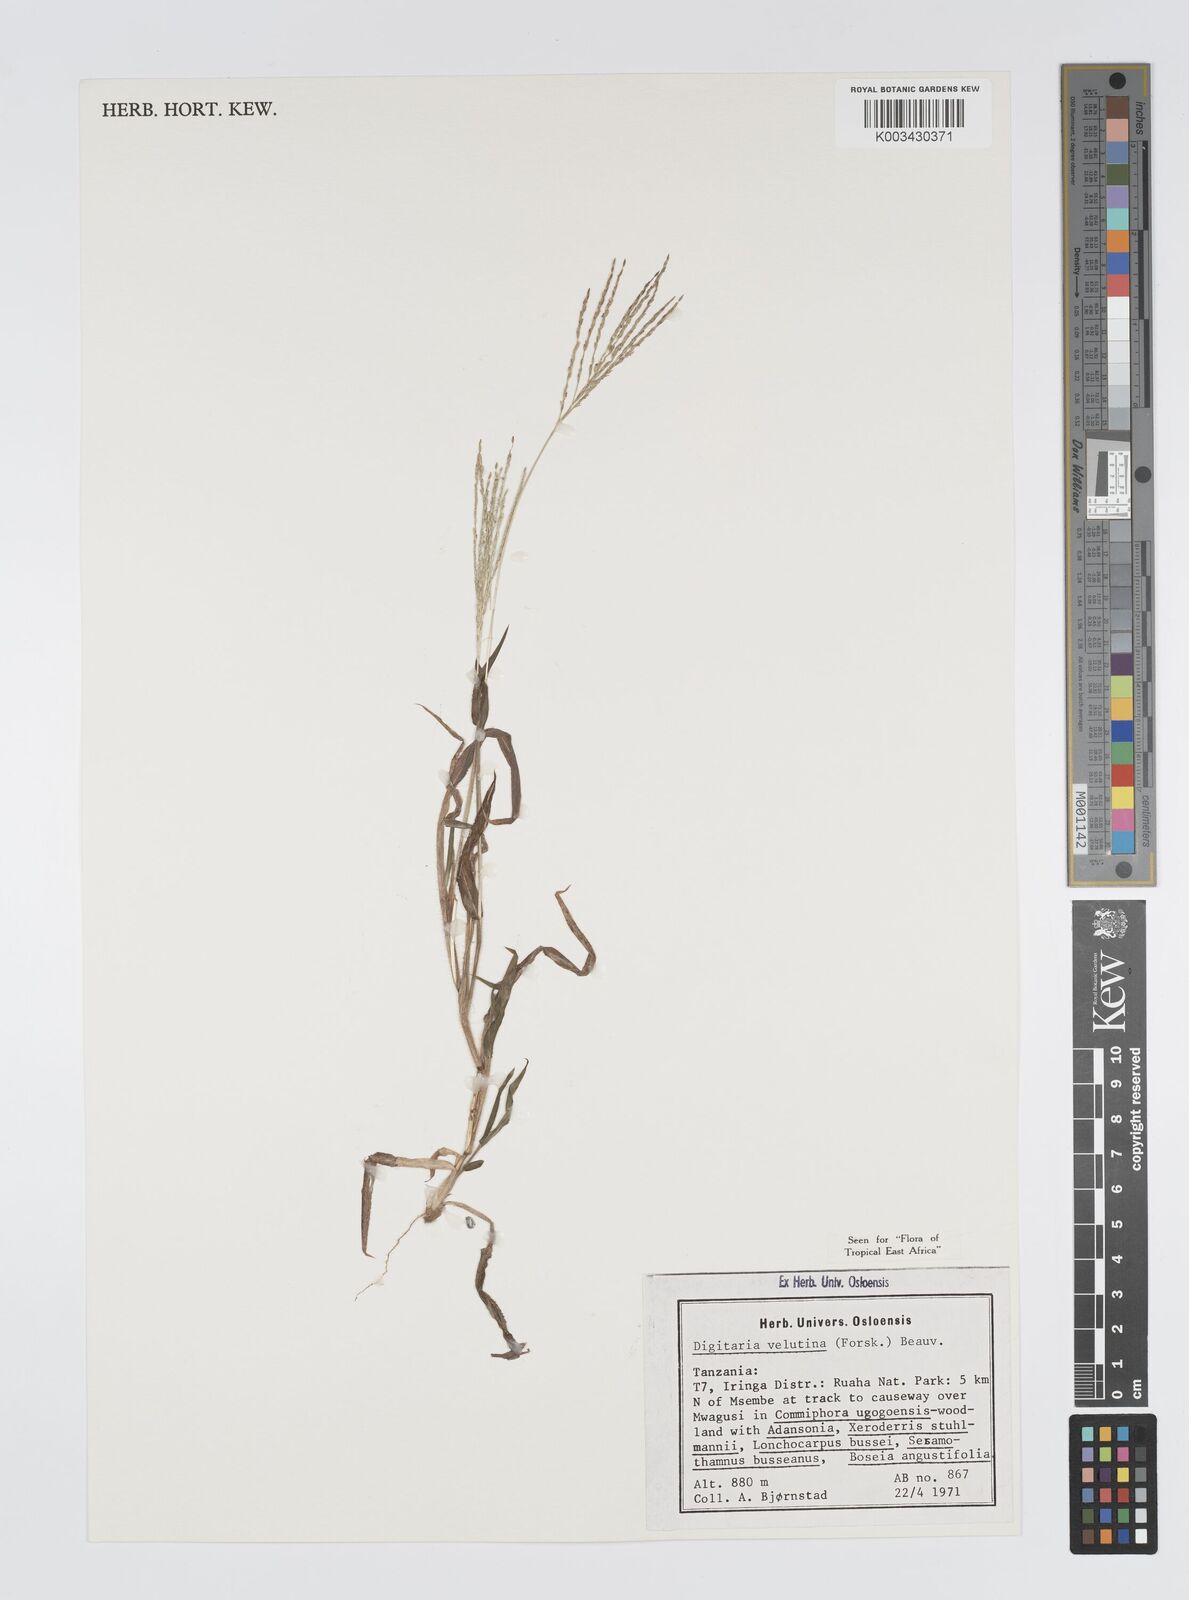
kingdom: Plantae
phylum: Tracheophyta
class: Liliopsida
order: Poales
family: Poaceae
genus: Digitaria
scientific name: Digitaria velutina
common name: Long-plume finger grass
